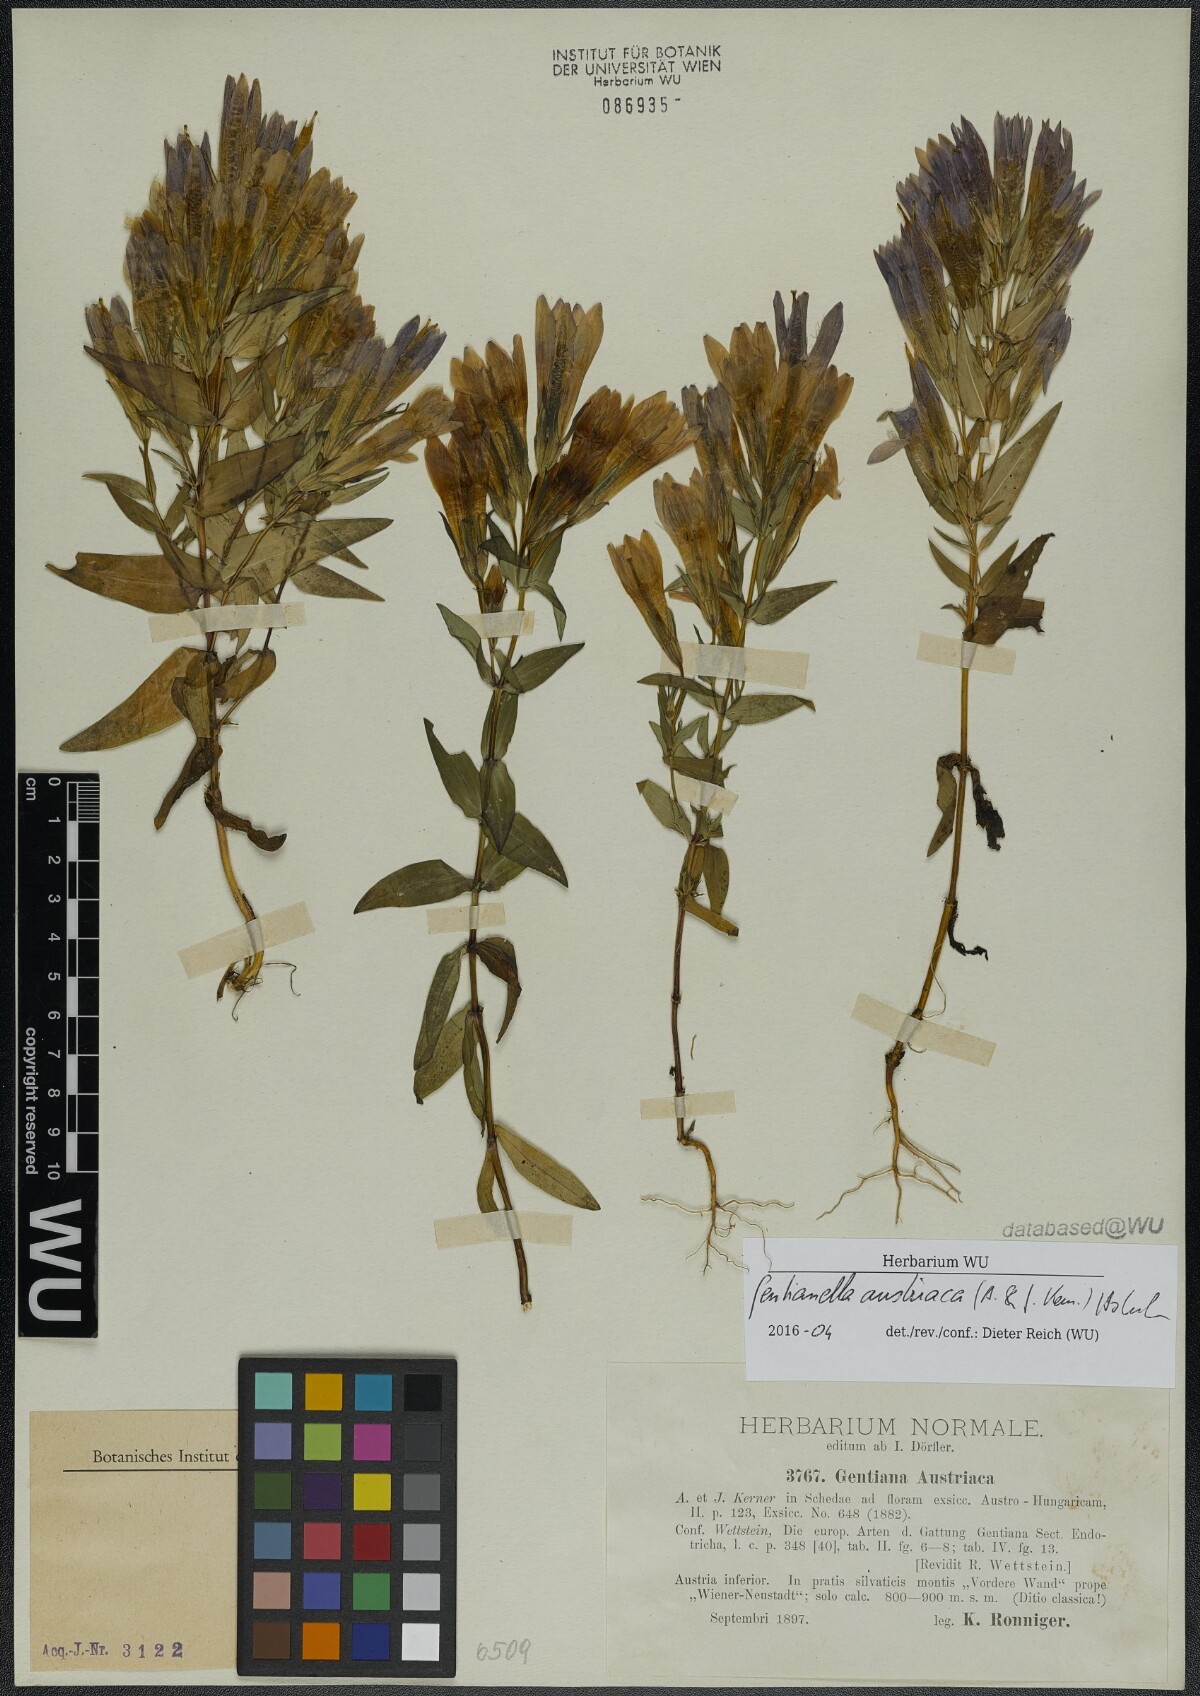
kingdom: Plantae
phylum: Tracheophyta
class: Magnoliopsida
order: Gentianales
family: Gentianaceae
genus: Gentianella
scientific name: Gentianella austriaca
